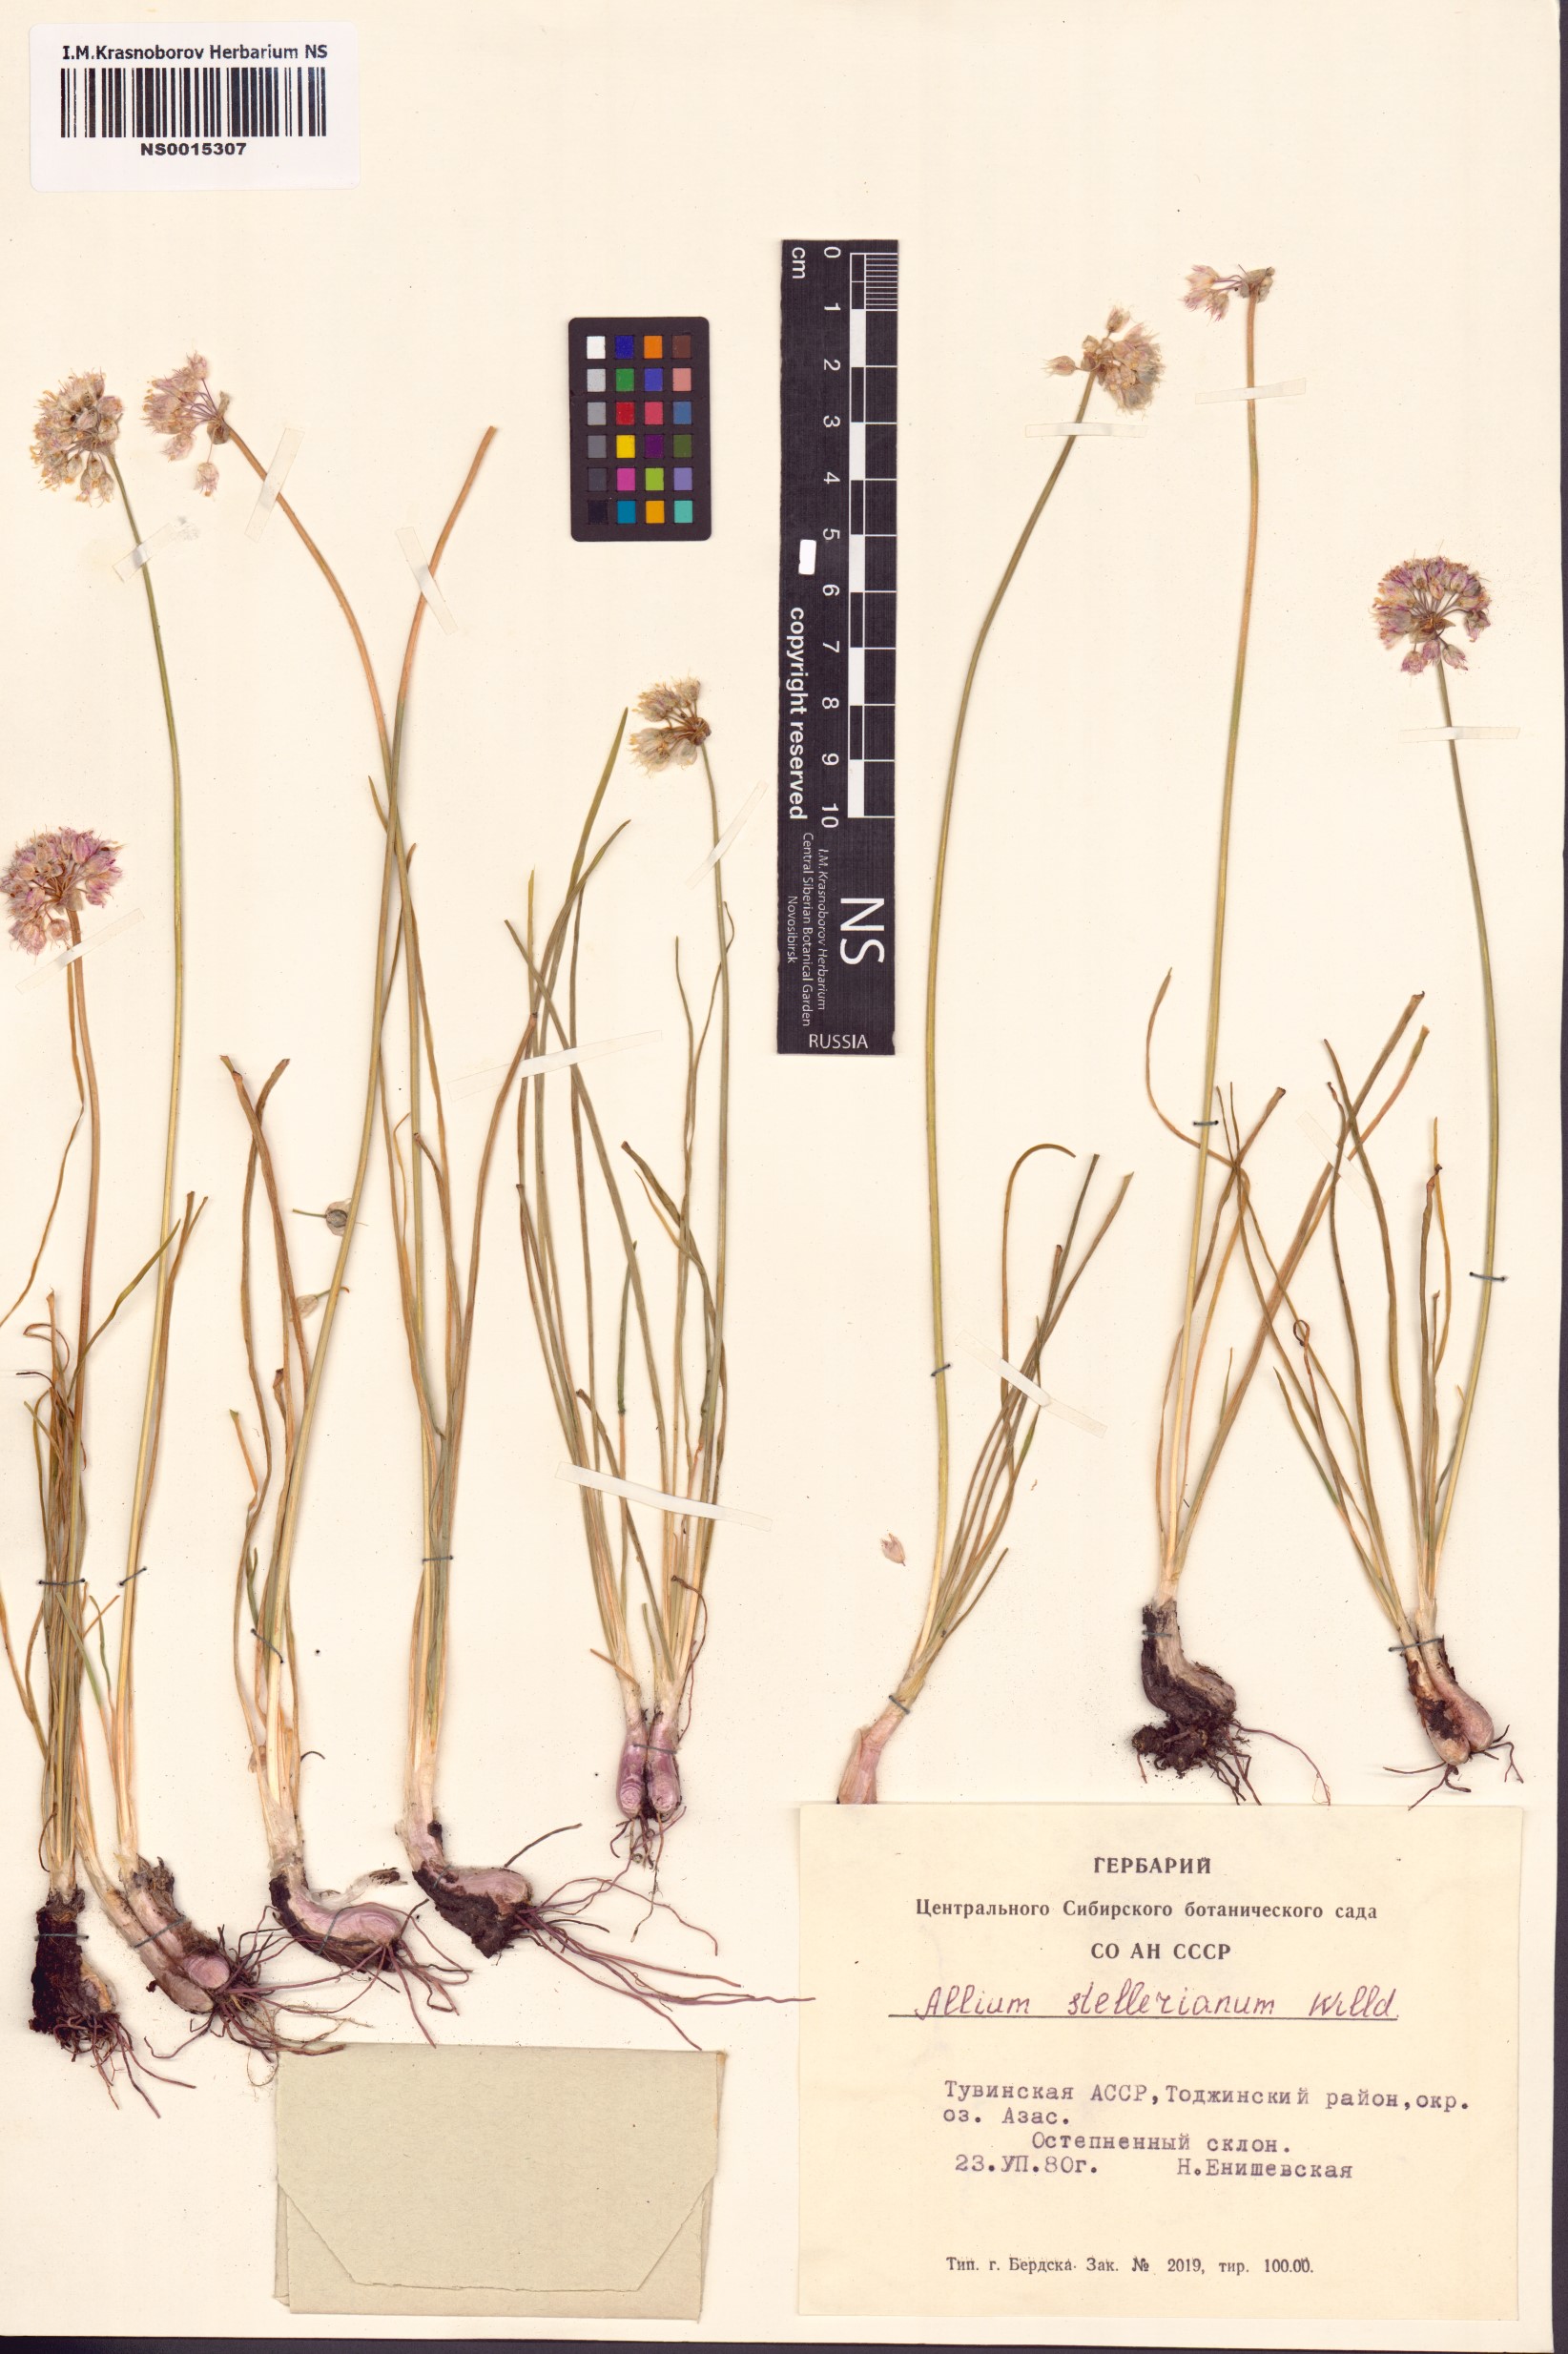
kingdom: Plantae
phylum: Tracheophyta
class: Liliopsida
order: Asparagales
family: Amaryllidaceae
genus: Allium
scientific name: Allium stellerianum
